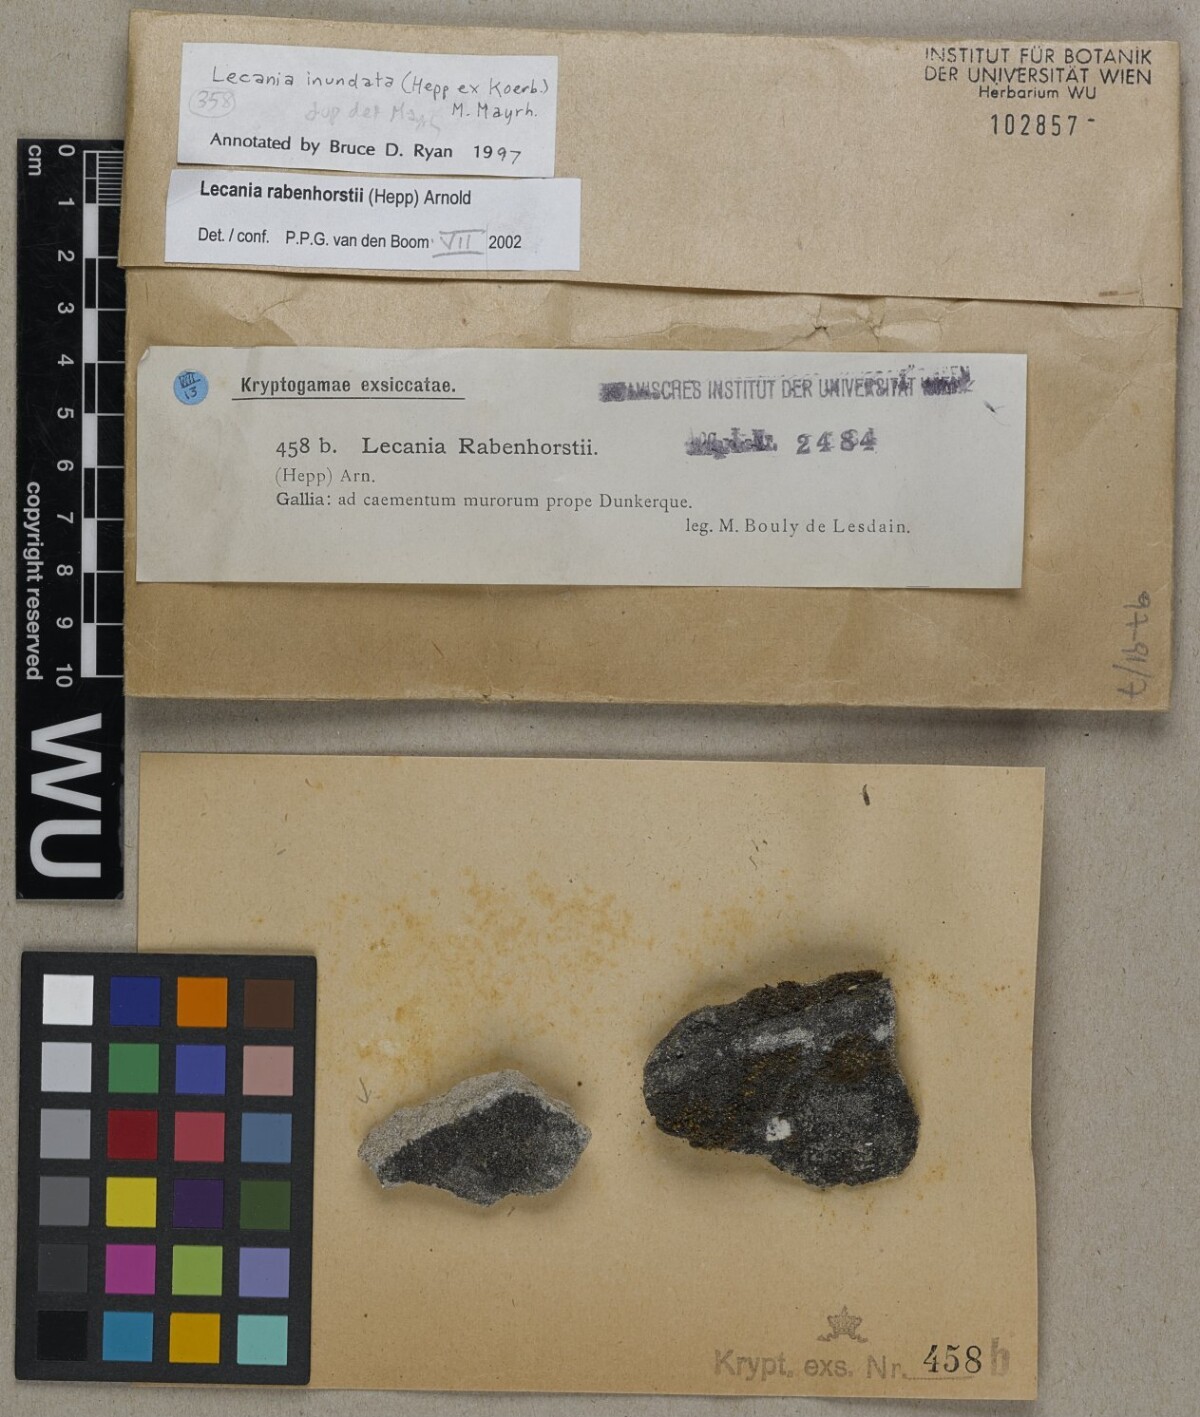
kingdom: Fungi
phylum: Ascomycota
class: Lecanoromycetes
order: Lecanorales
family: Ramalinaceae
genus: Lecania
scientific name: Lecania rabenhorstii
